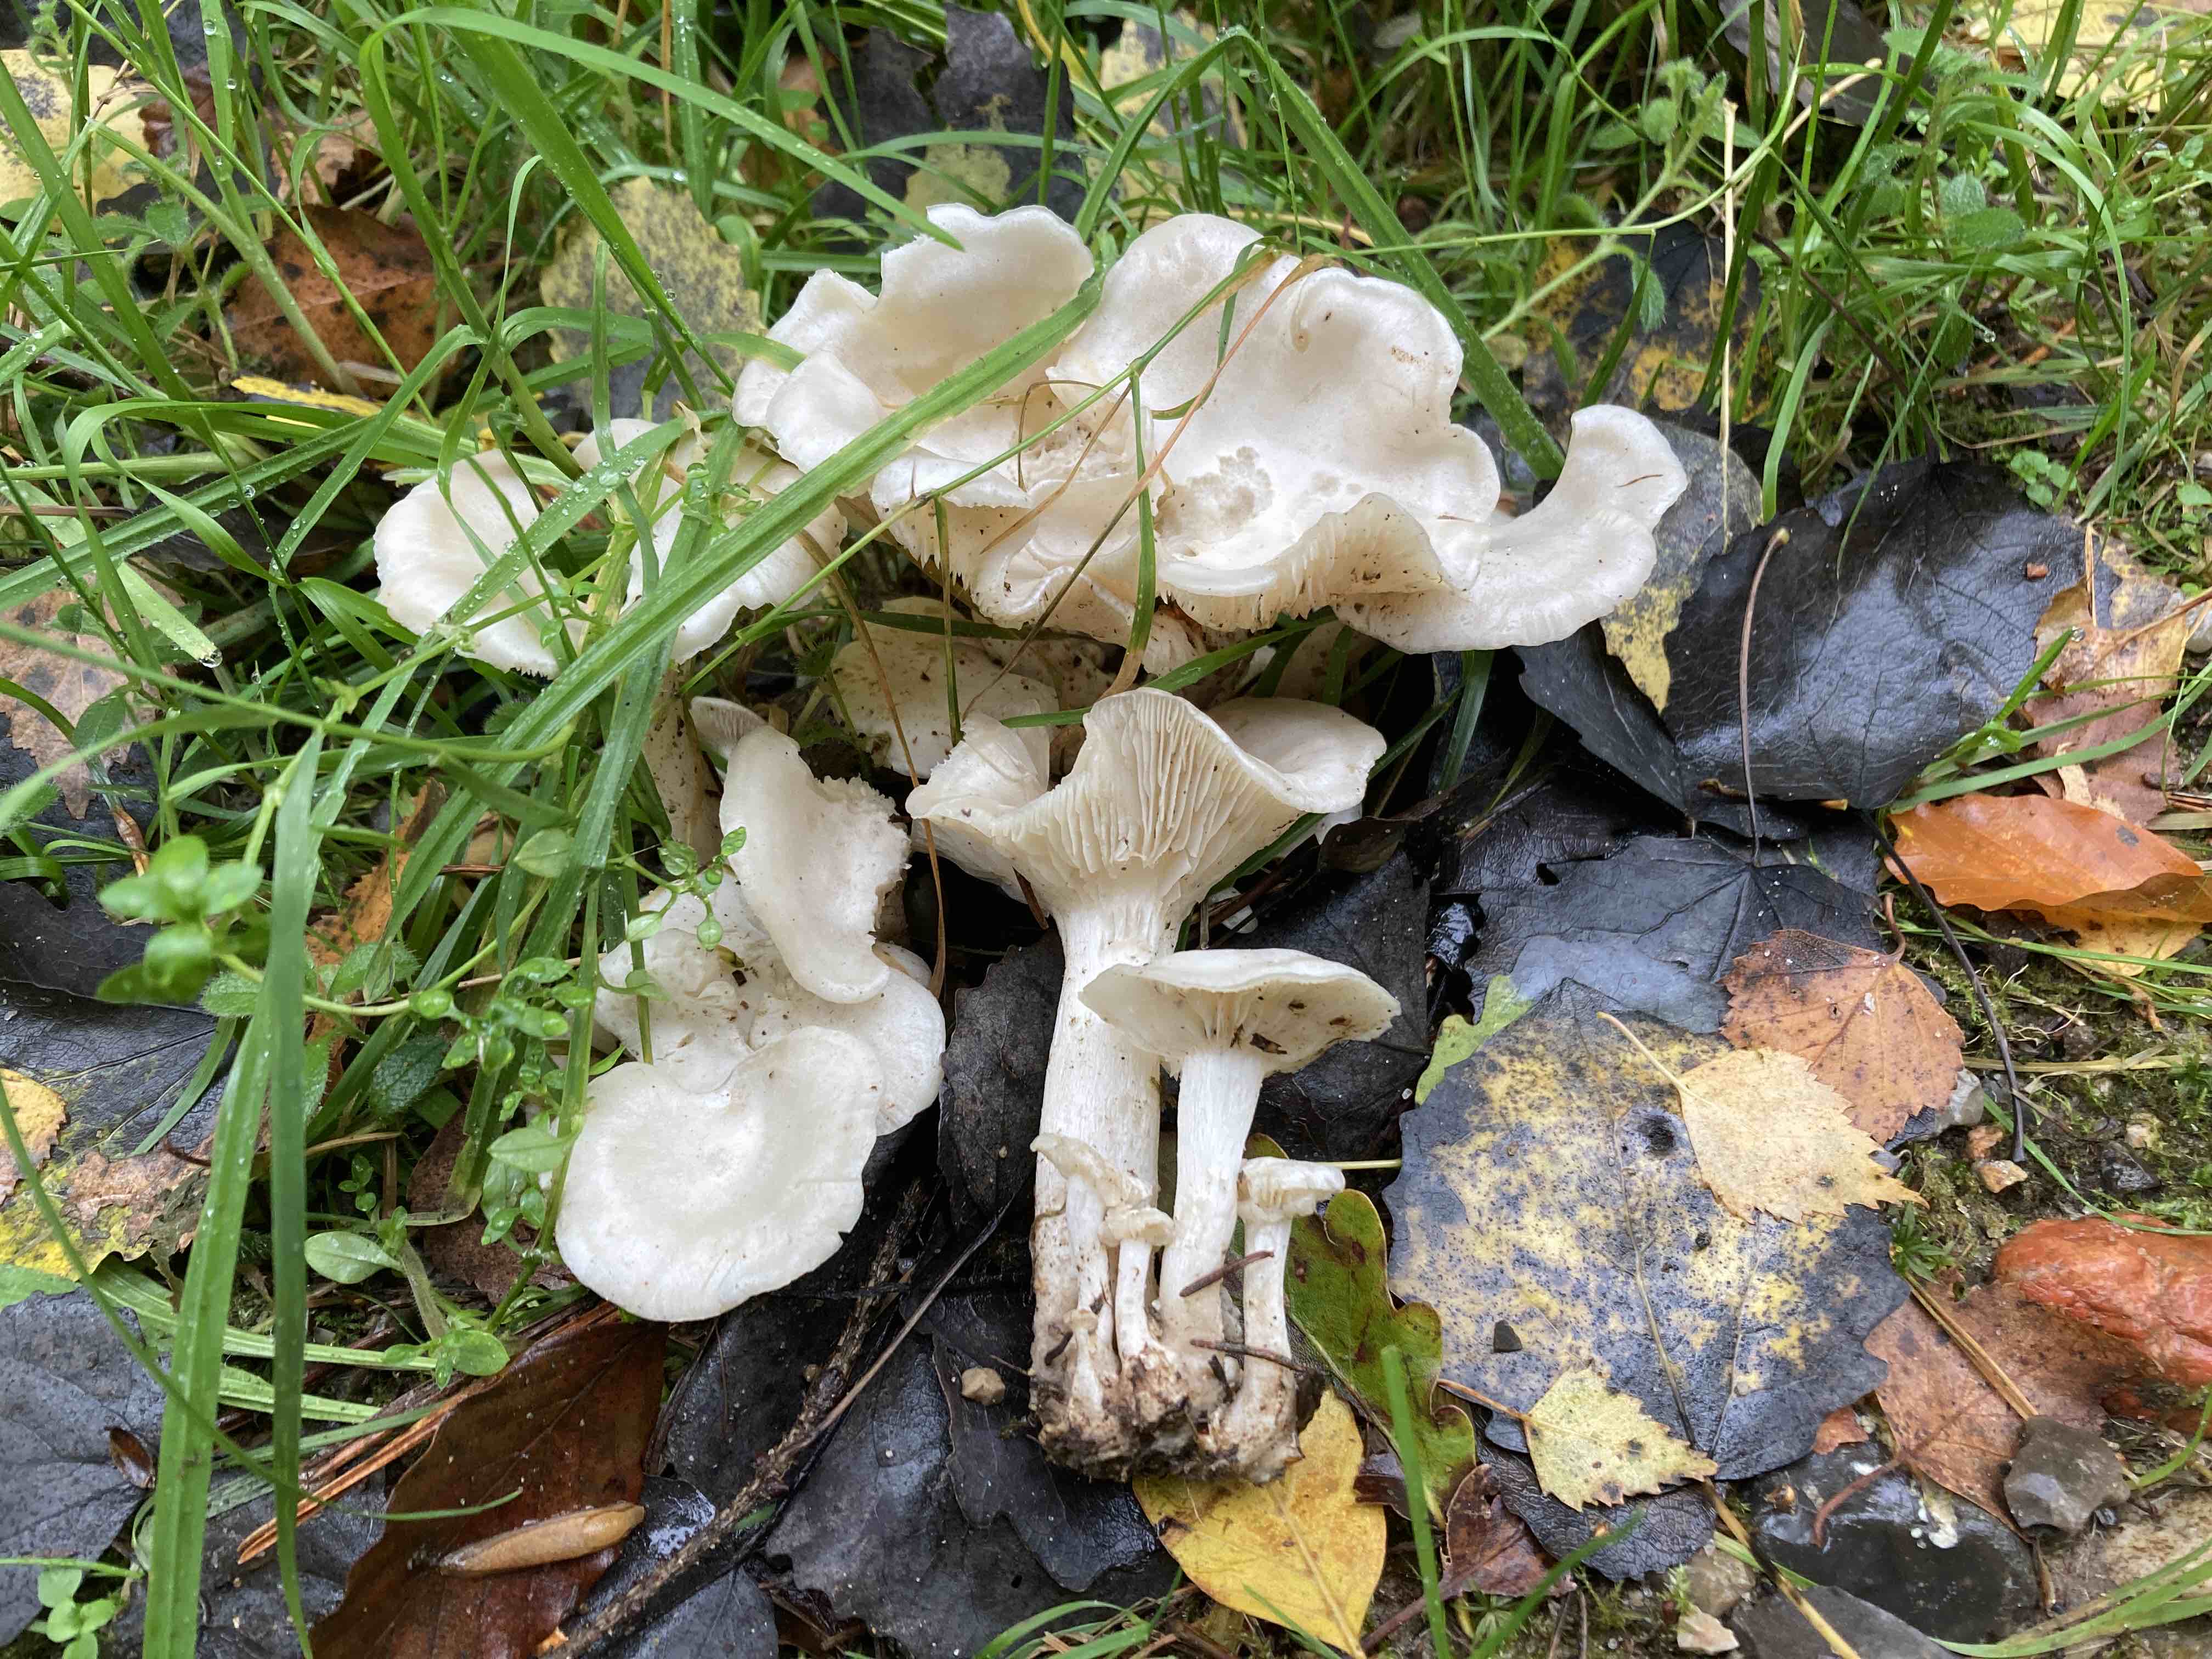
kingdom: Fungi
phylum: Basidiomycota
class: Agaricomycetes
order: Agaricales
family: Tricholomataceae
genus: Leucocybe
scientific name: Leucocybe connata
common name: knippe-tragthat
